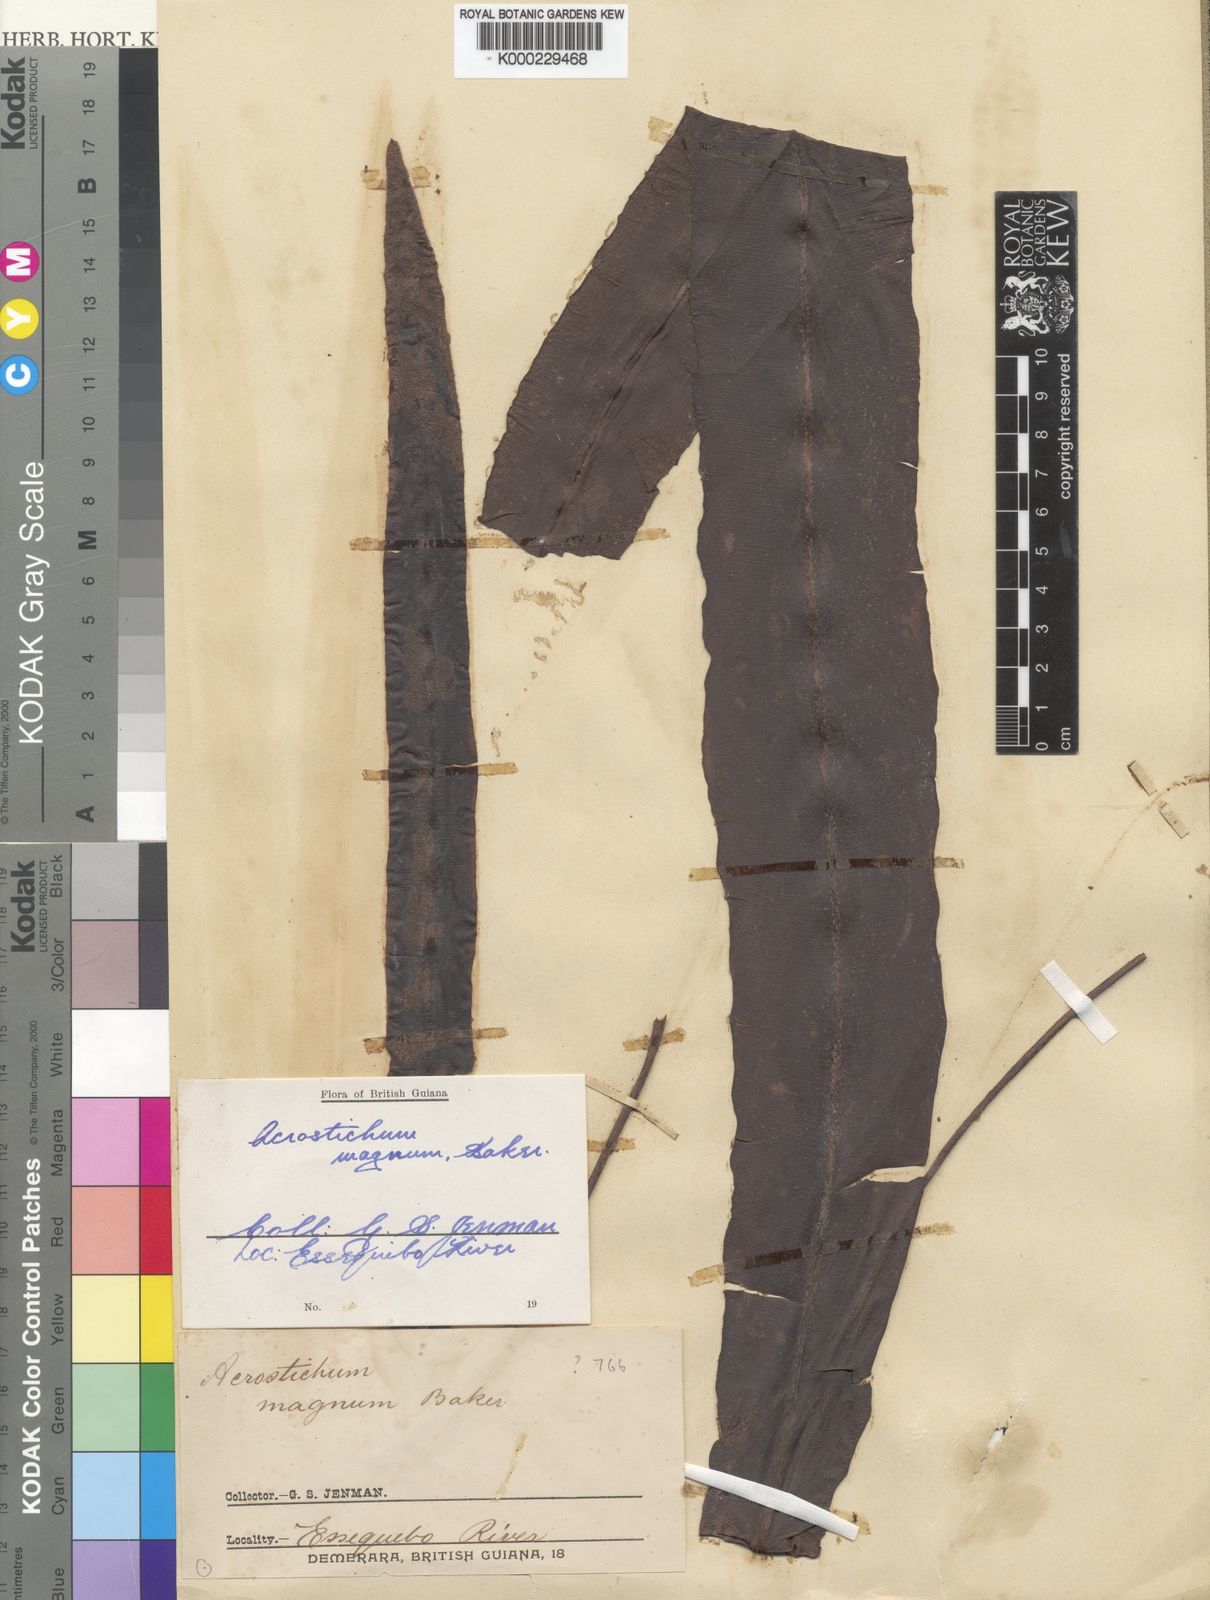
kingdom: Plantae
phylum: Tracheophyta
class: Polypodiopsida
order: Polypodiales
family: Dryopteridaceae
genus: Elaphoglossum
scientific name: Elaphoglossum laminarioides
